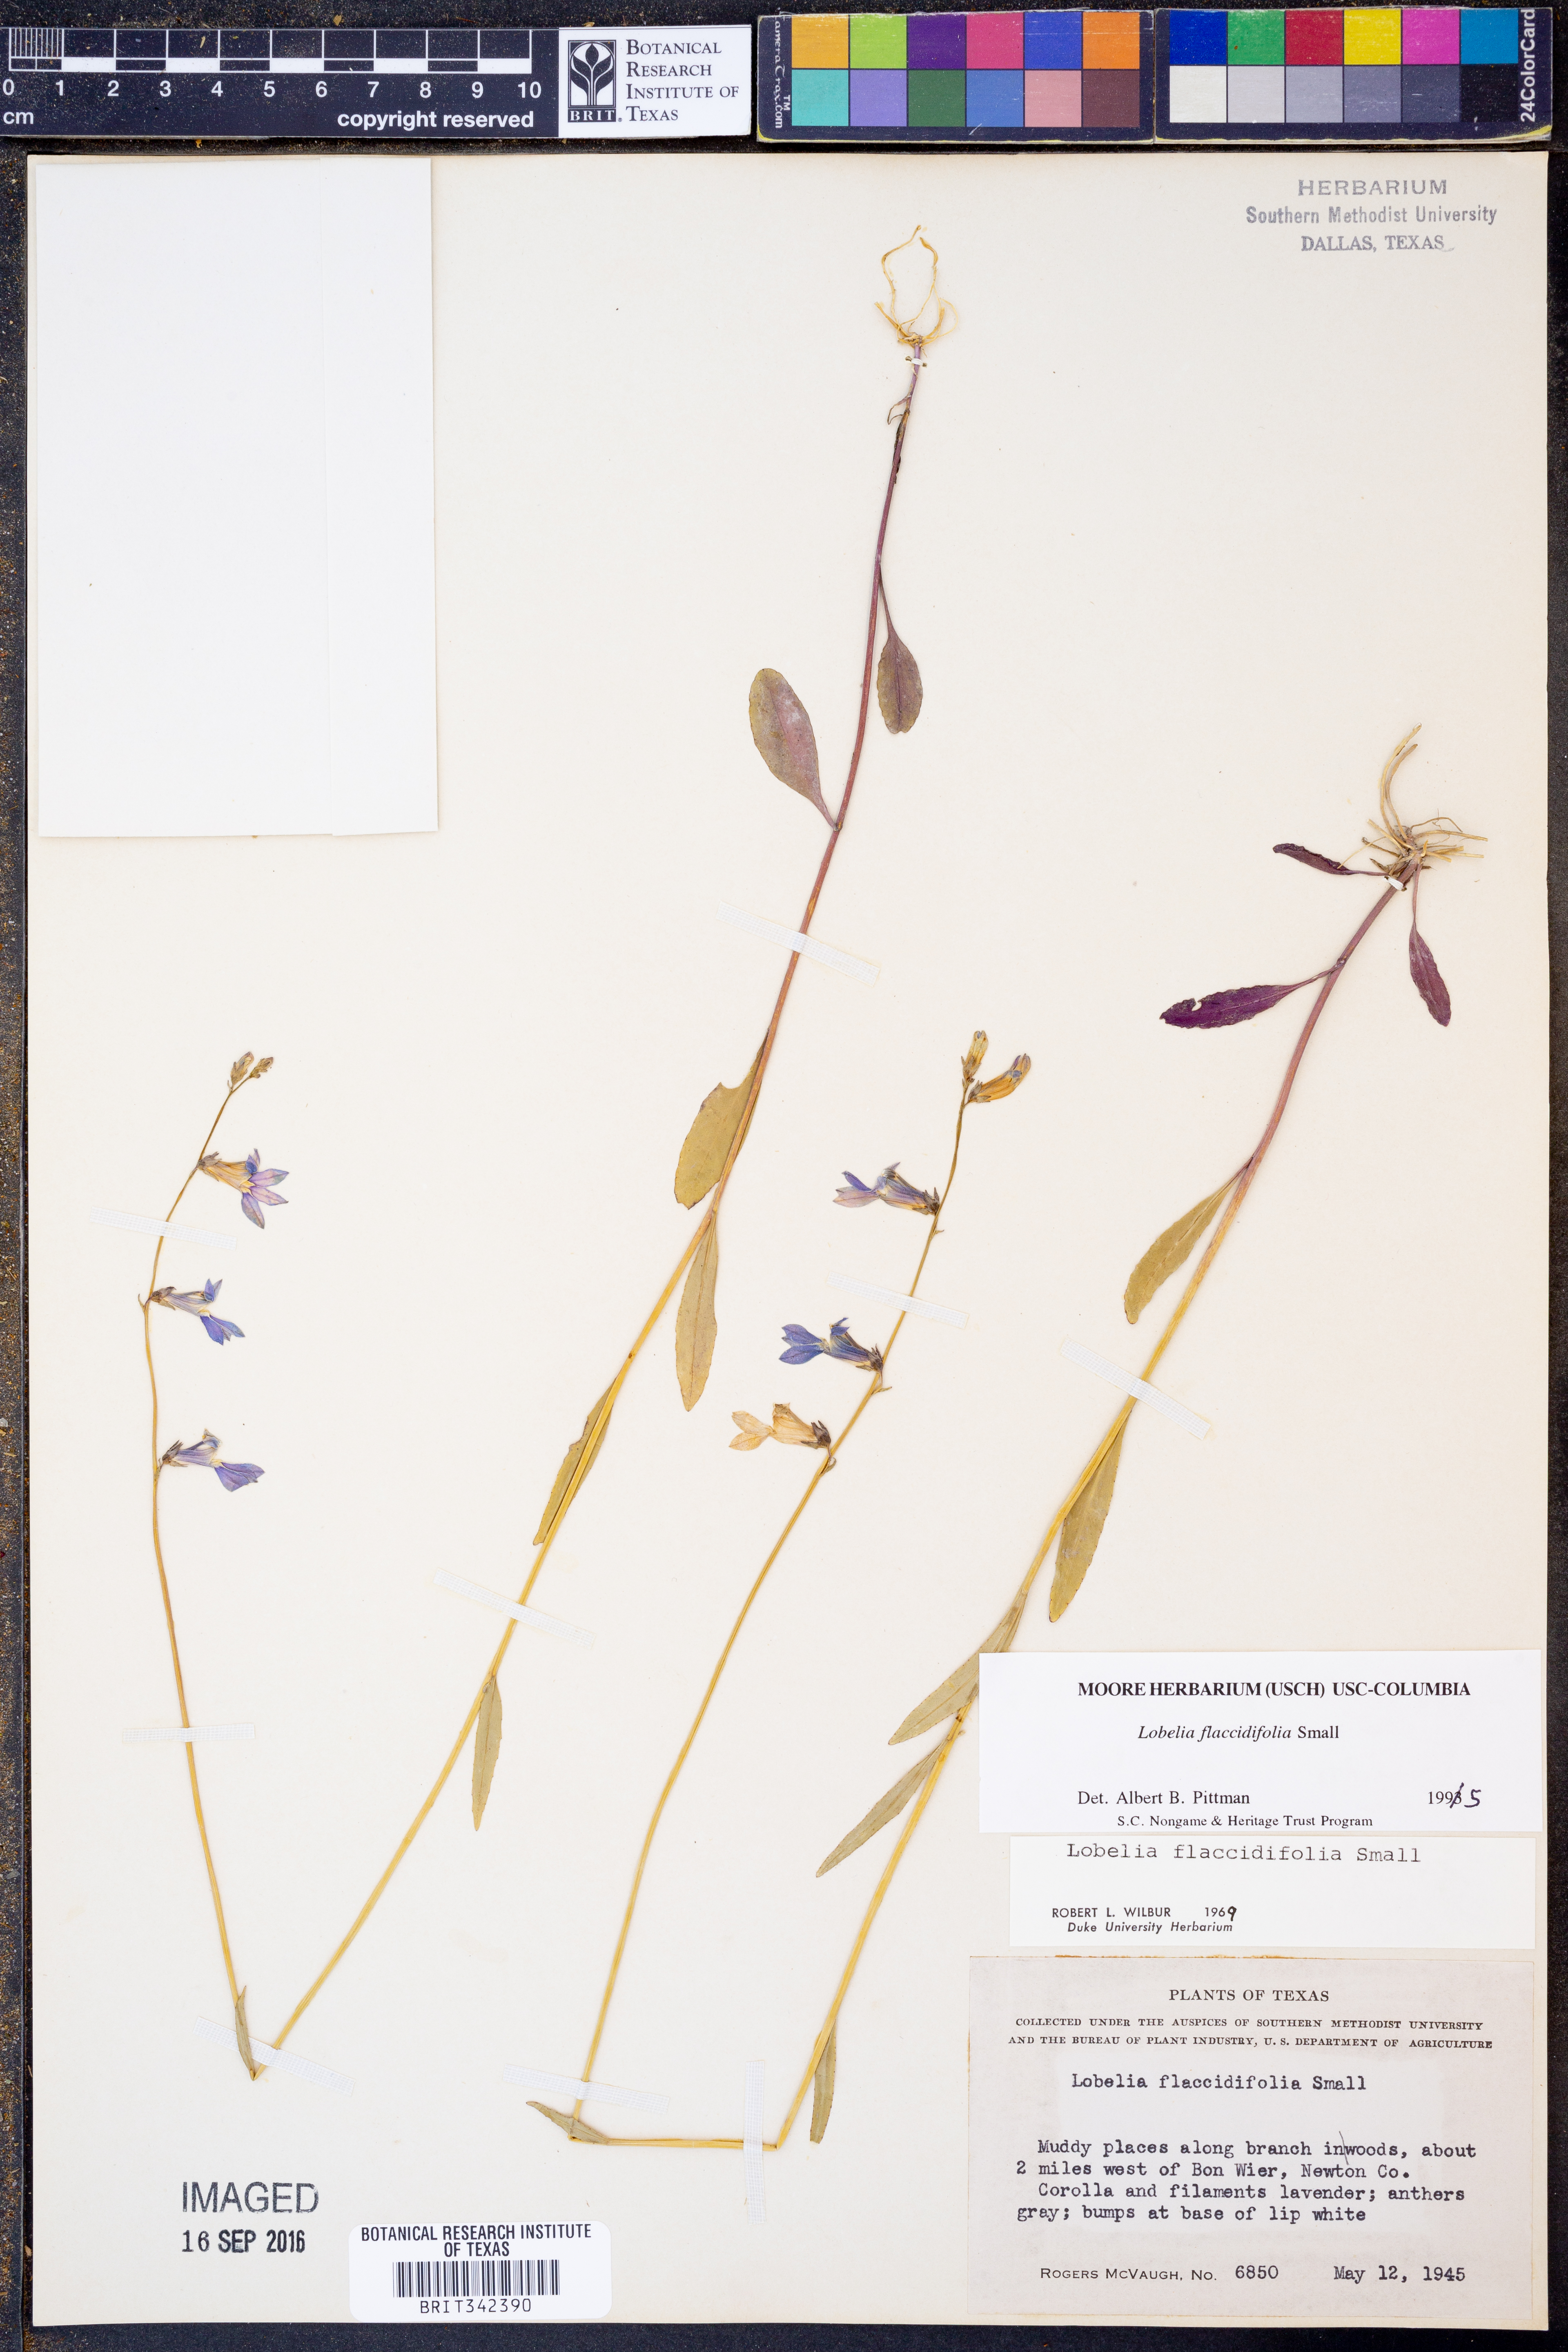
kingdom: Plantae
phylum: Tracheophyta
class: Magnoliopsida
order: Asterales
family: Campanulaceae
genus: Lobelia
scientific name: Lobelia flaccidifolia
